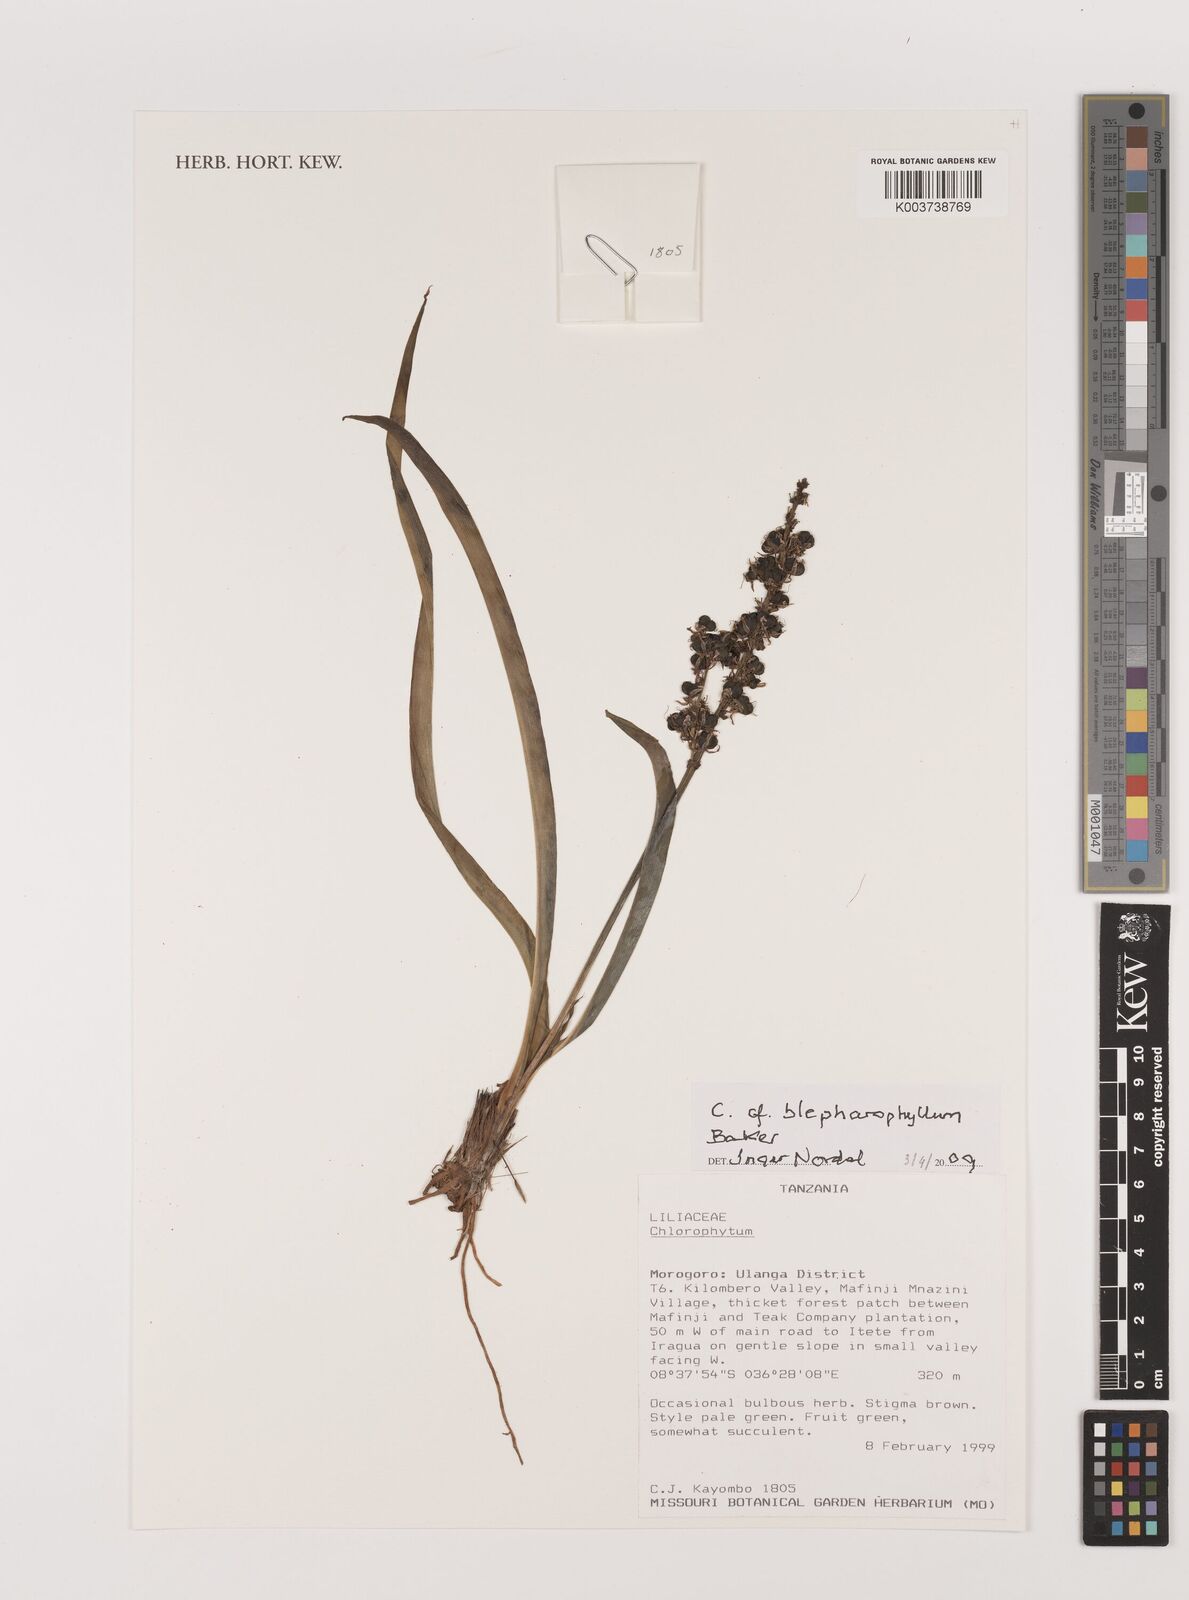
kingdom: Plantae
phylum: Tracheophyta
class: Liliopsida
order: Asparagales
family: Asparagaceae
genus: Chlorophytum
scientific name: Chlorophytum blepharophyllum
